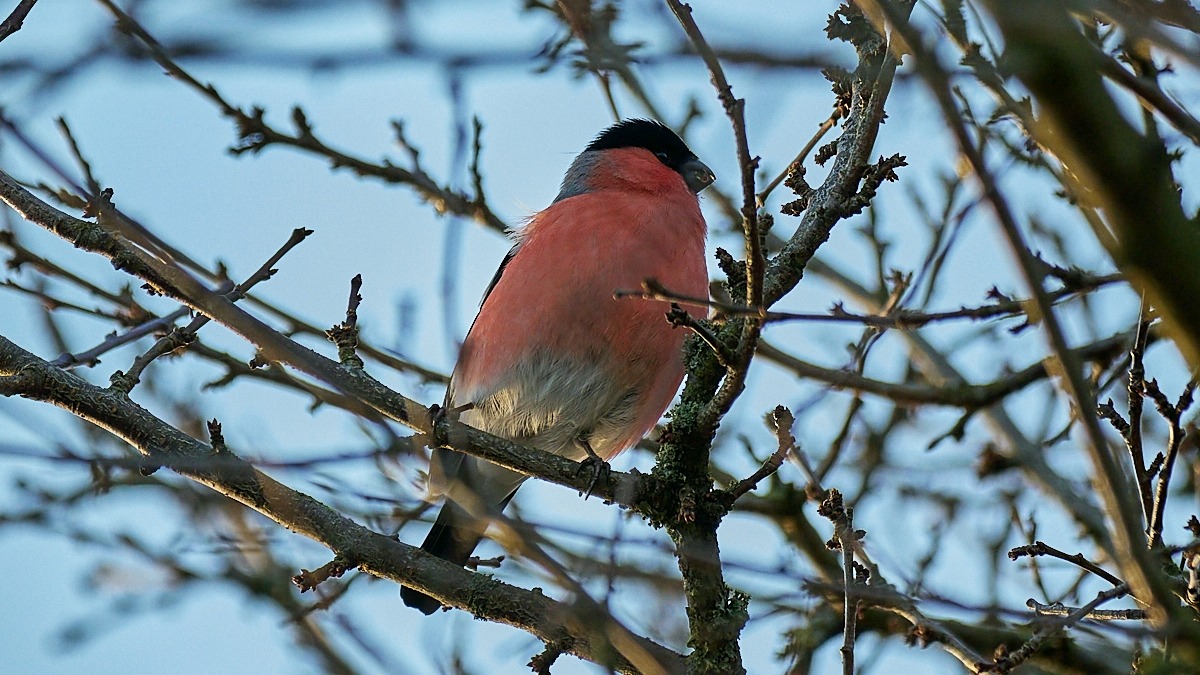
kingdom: Animalia
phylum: Chordata
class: Aves
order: Passeriformes
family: Fringillidae
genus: Pyrrhula
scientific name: Pyrrhula pyrrhula
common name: Dompap
